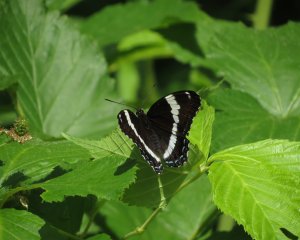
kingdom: Animalia
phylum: Arthropoda
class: Insecta
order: Lepidoptera
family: Nymphalidae
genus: Limenitis
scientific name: Limenitis arthemis
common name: Red-spotted Admiral
